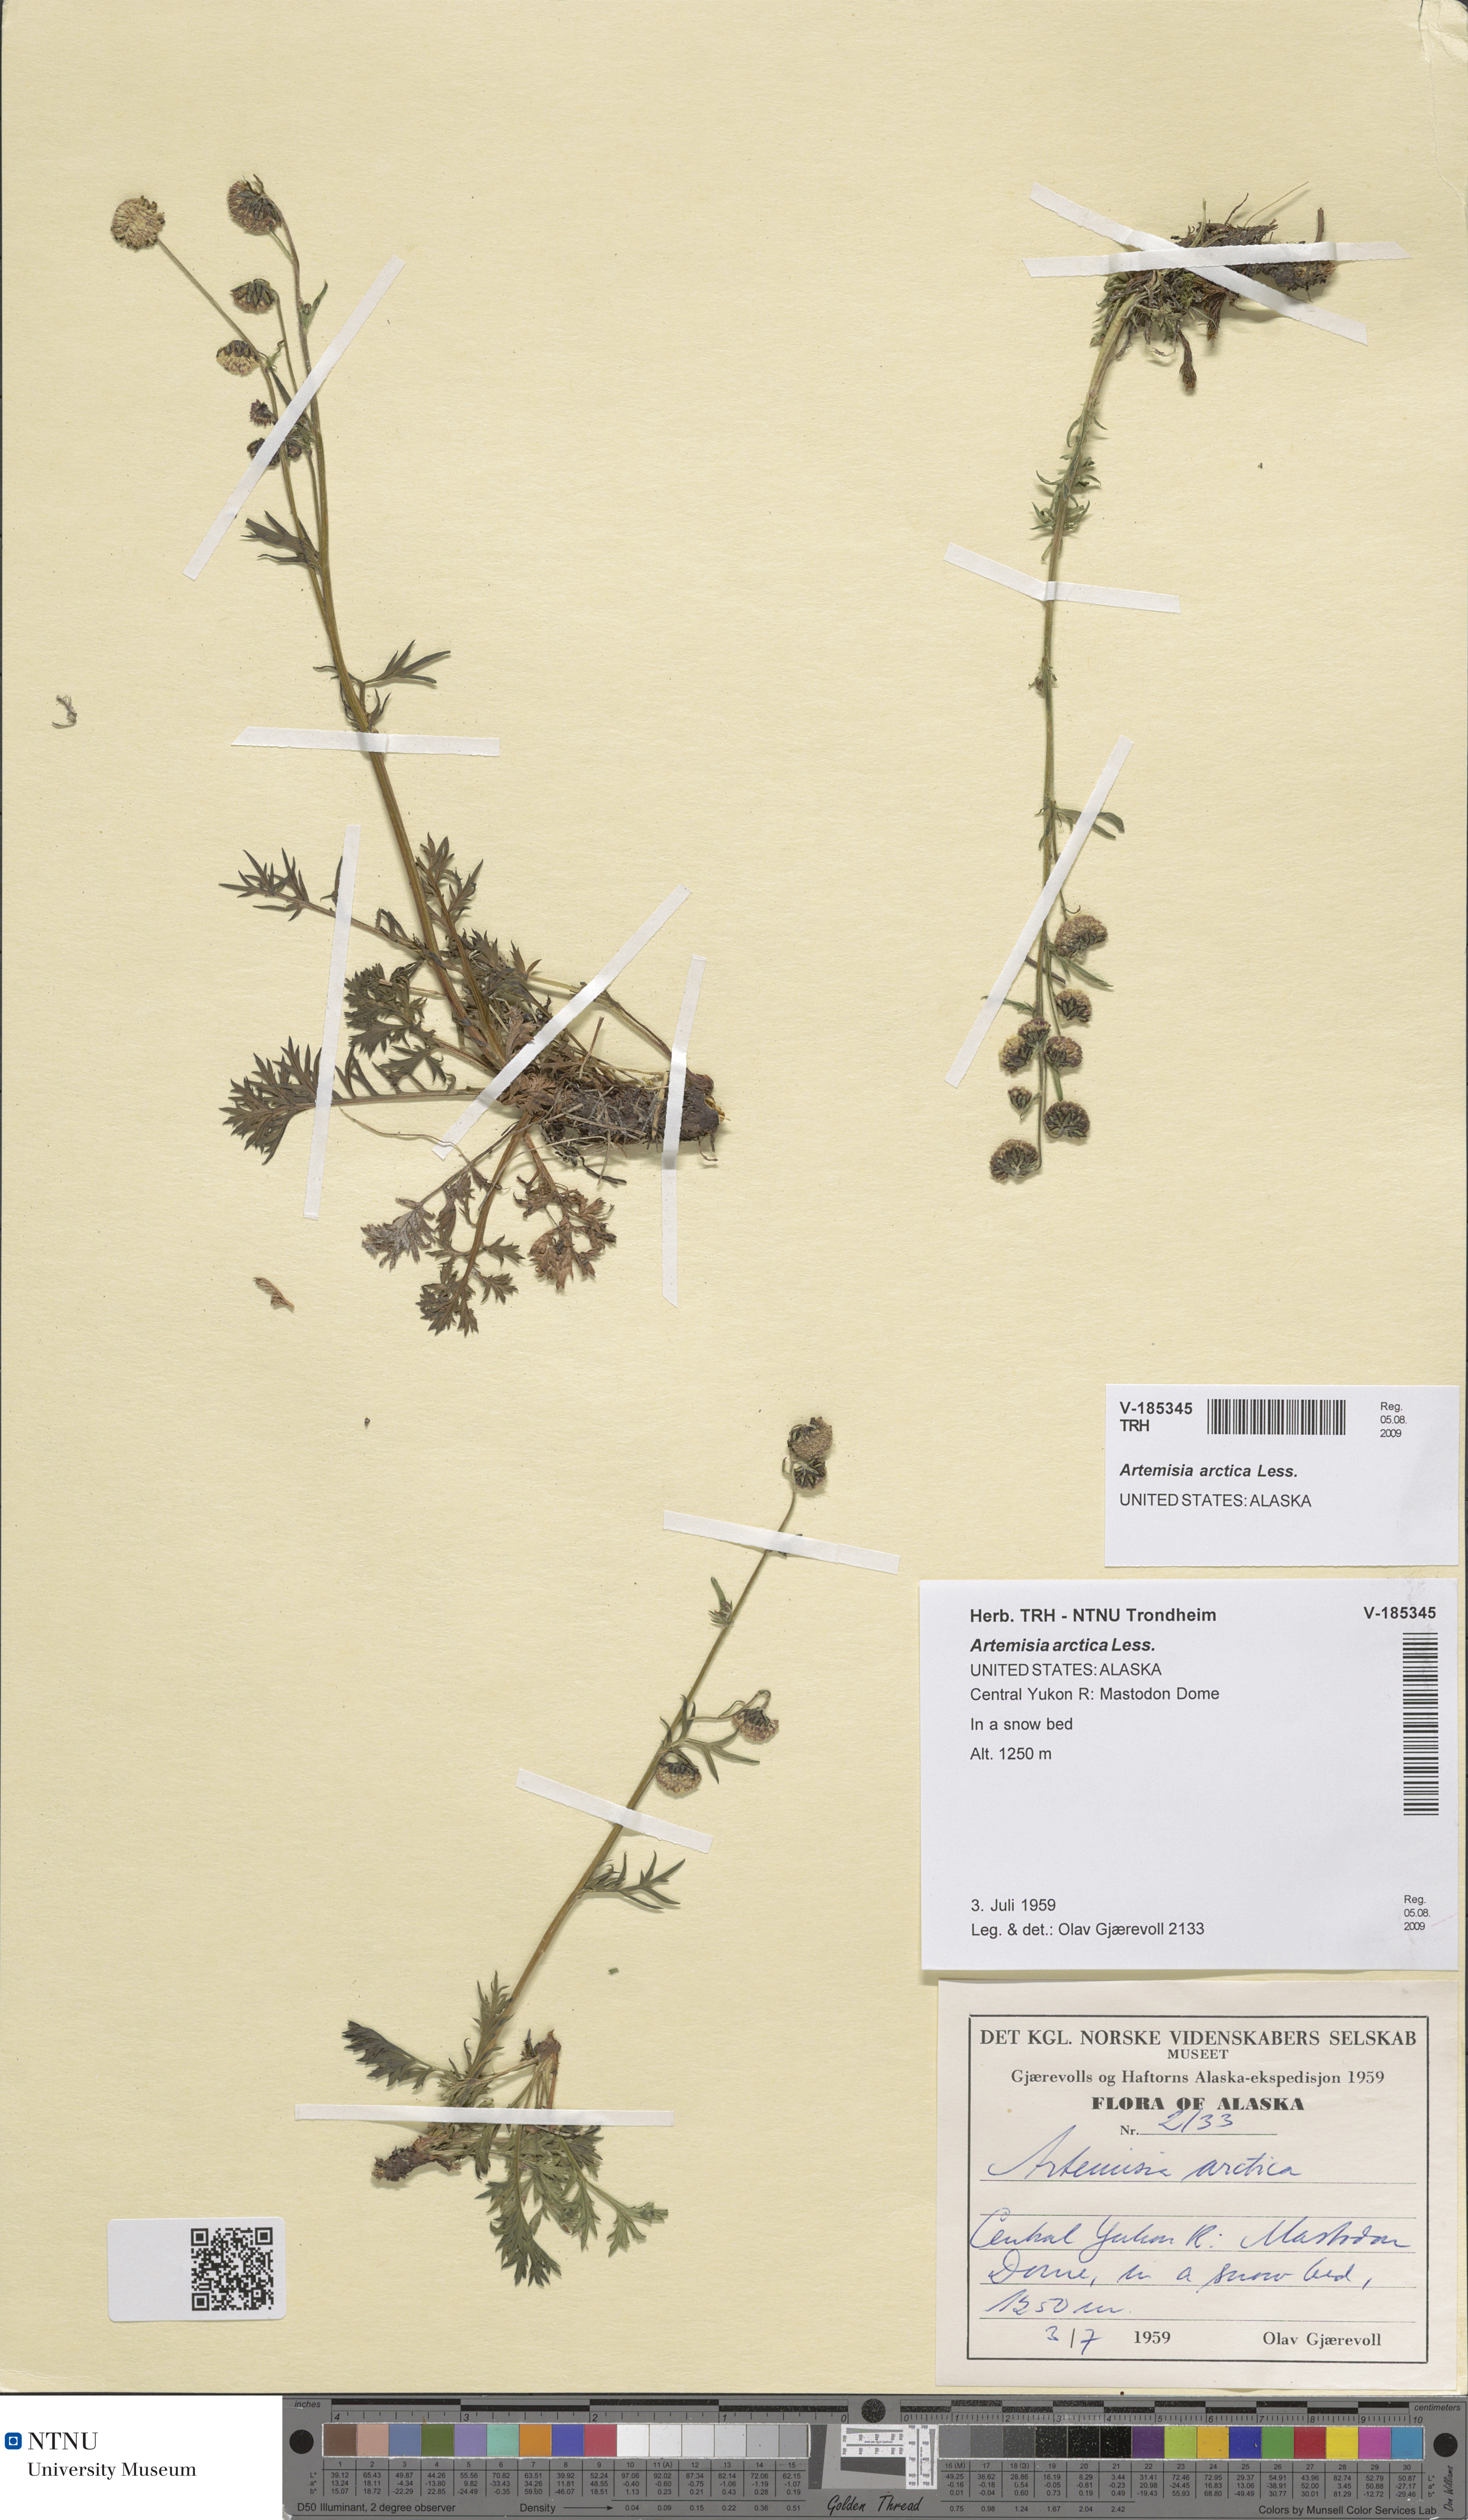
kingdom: Plantae
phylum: Tracheophyta
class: Magnoliopsida
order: Asterales
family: Asteraceae
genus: Artemisia
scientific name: Artemisia norvegica
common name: Norwegian mugwort
